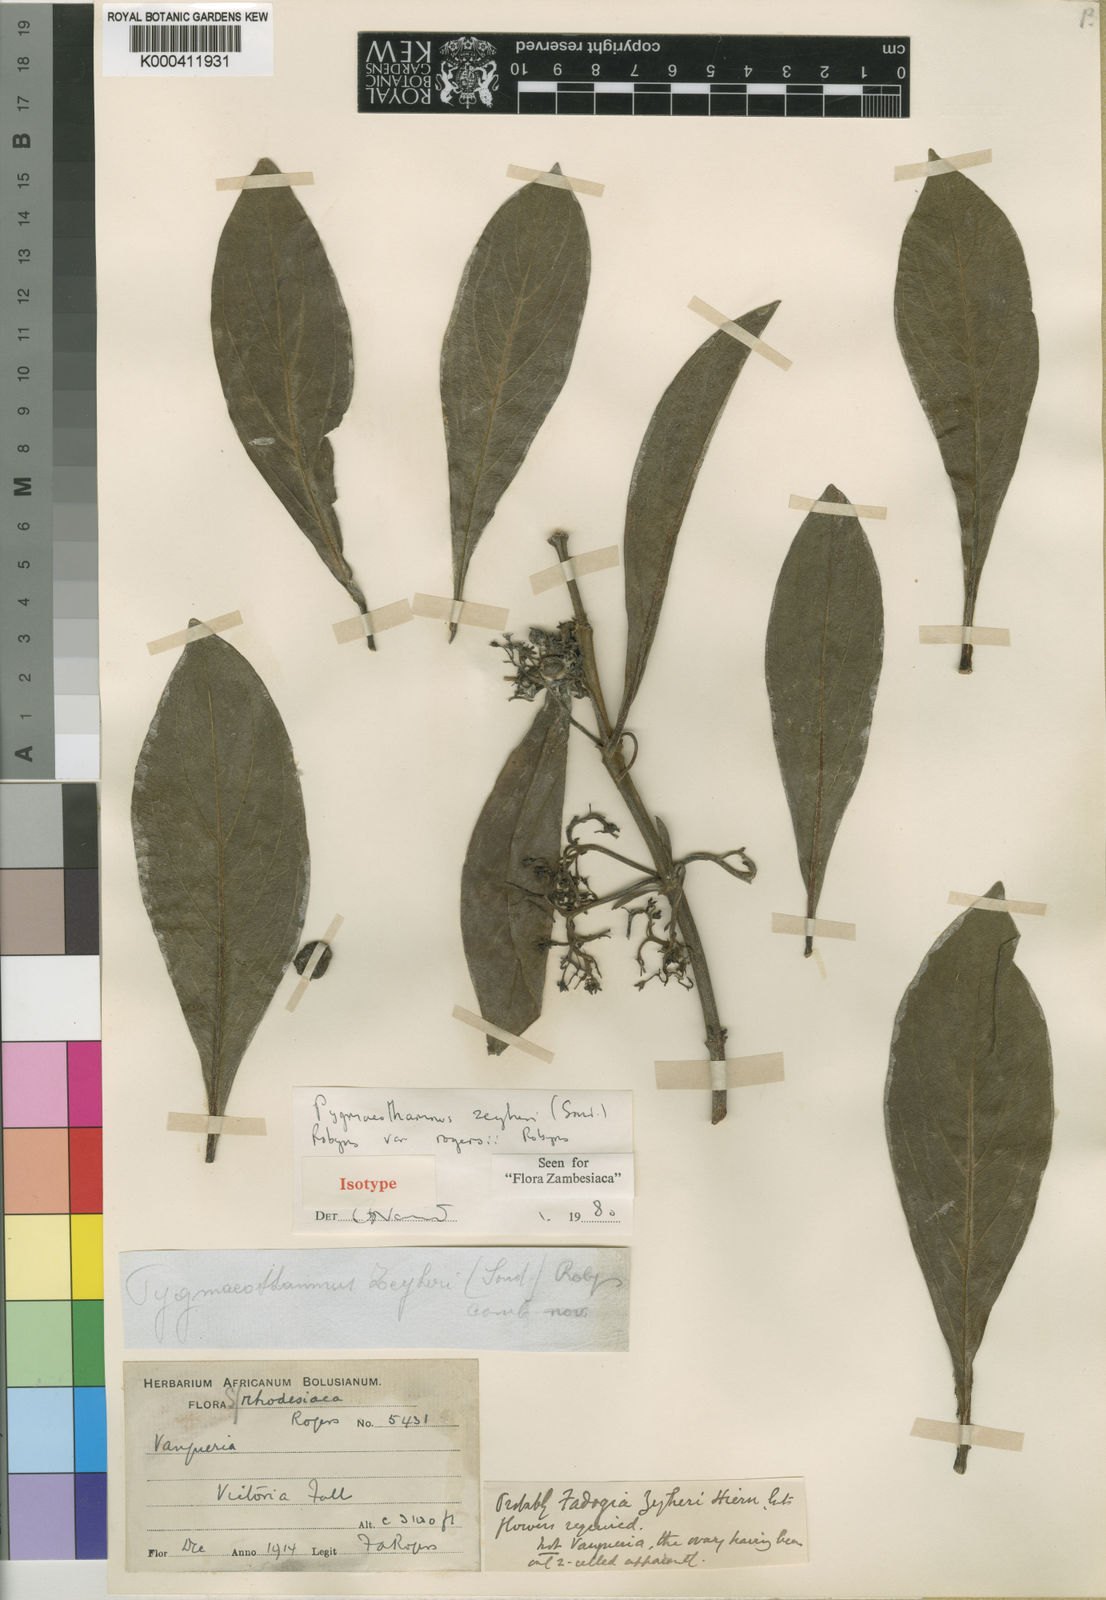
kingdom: Plantae
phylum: Tracheophyta
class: Magnoliopsida
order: Gentianales
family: Rubiaceae
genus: Pygmaeothamnus
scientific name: Pygmaeothamnus zeyheri
